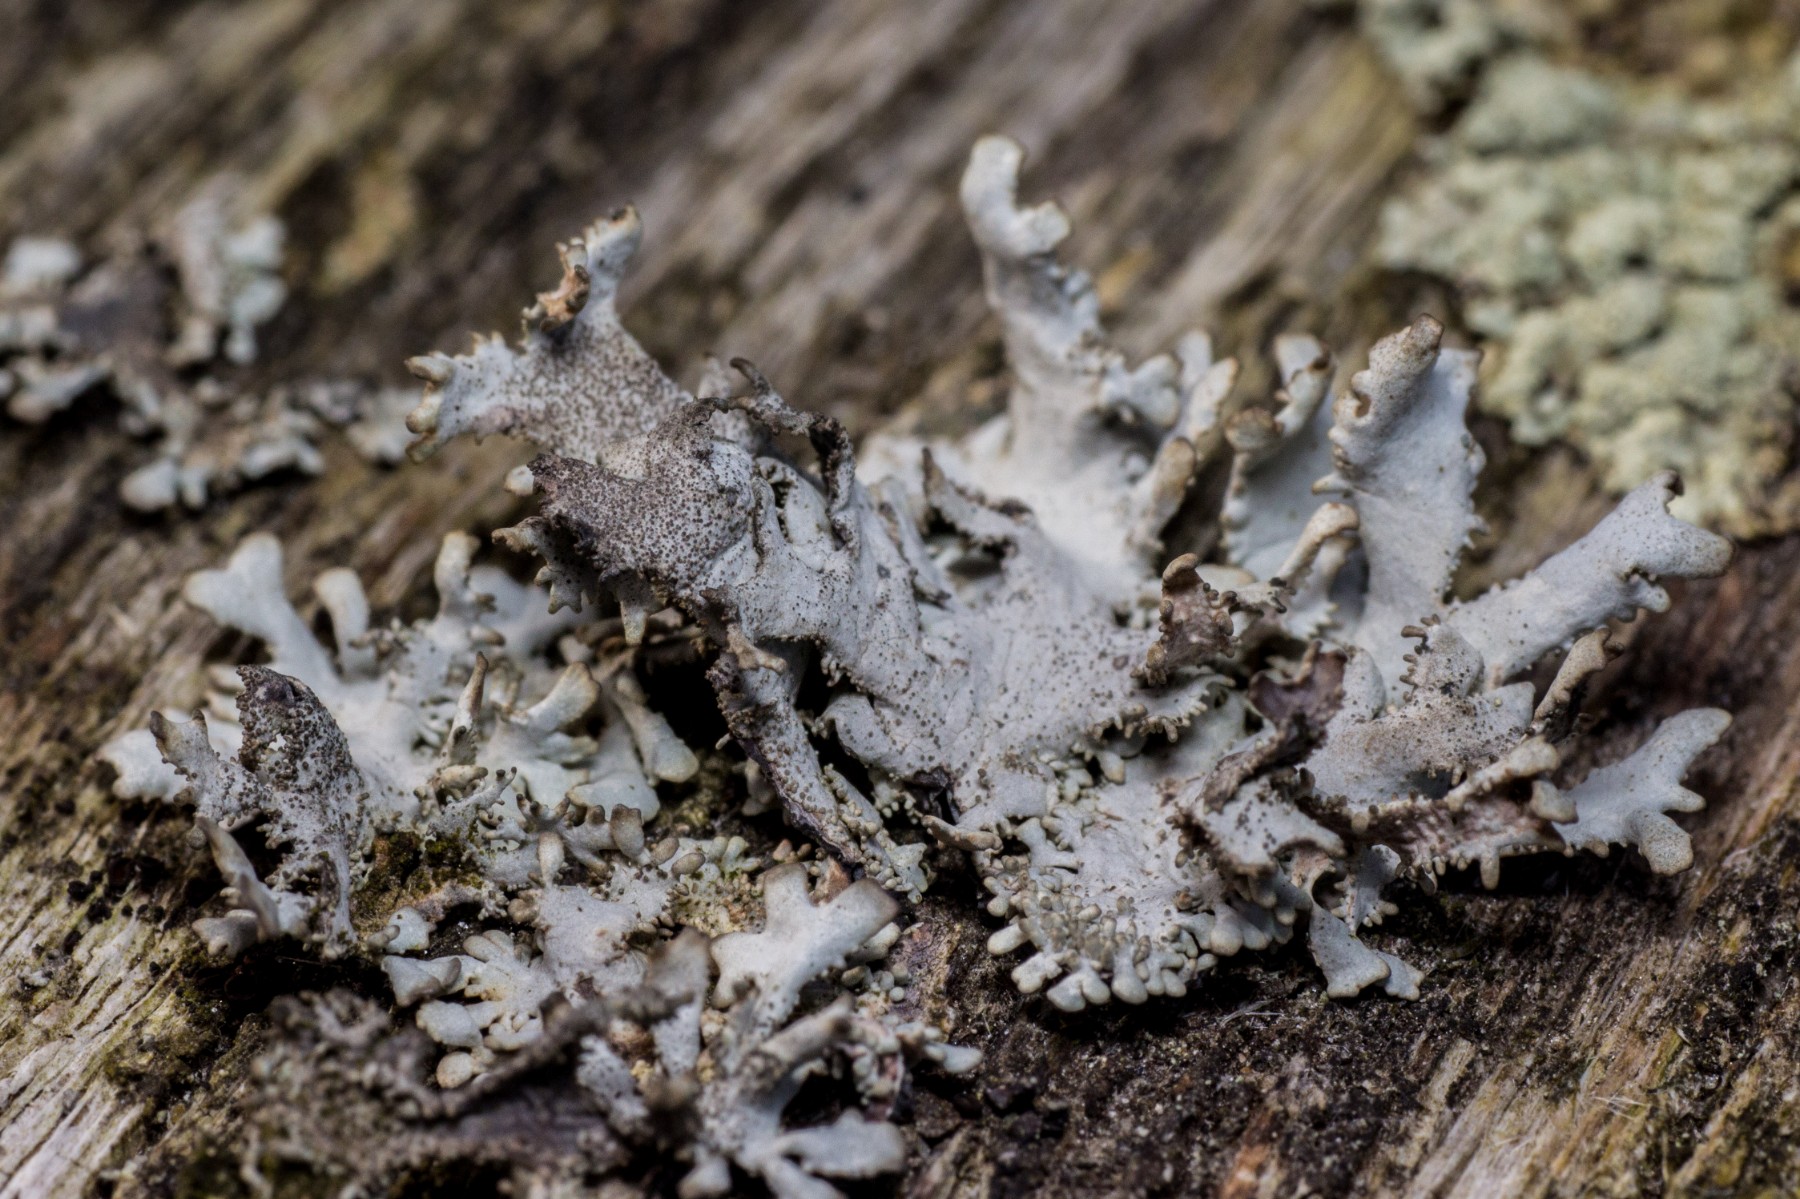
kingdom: Fungi
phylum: Ascomycota
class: Lecanoromycetes
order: Lecanorales
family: Parmeliaceae
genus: Pseudevernia
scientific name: Pseudevernia furfuracea
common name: grå fyrrelav
